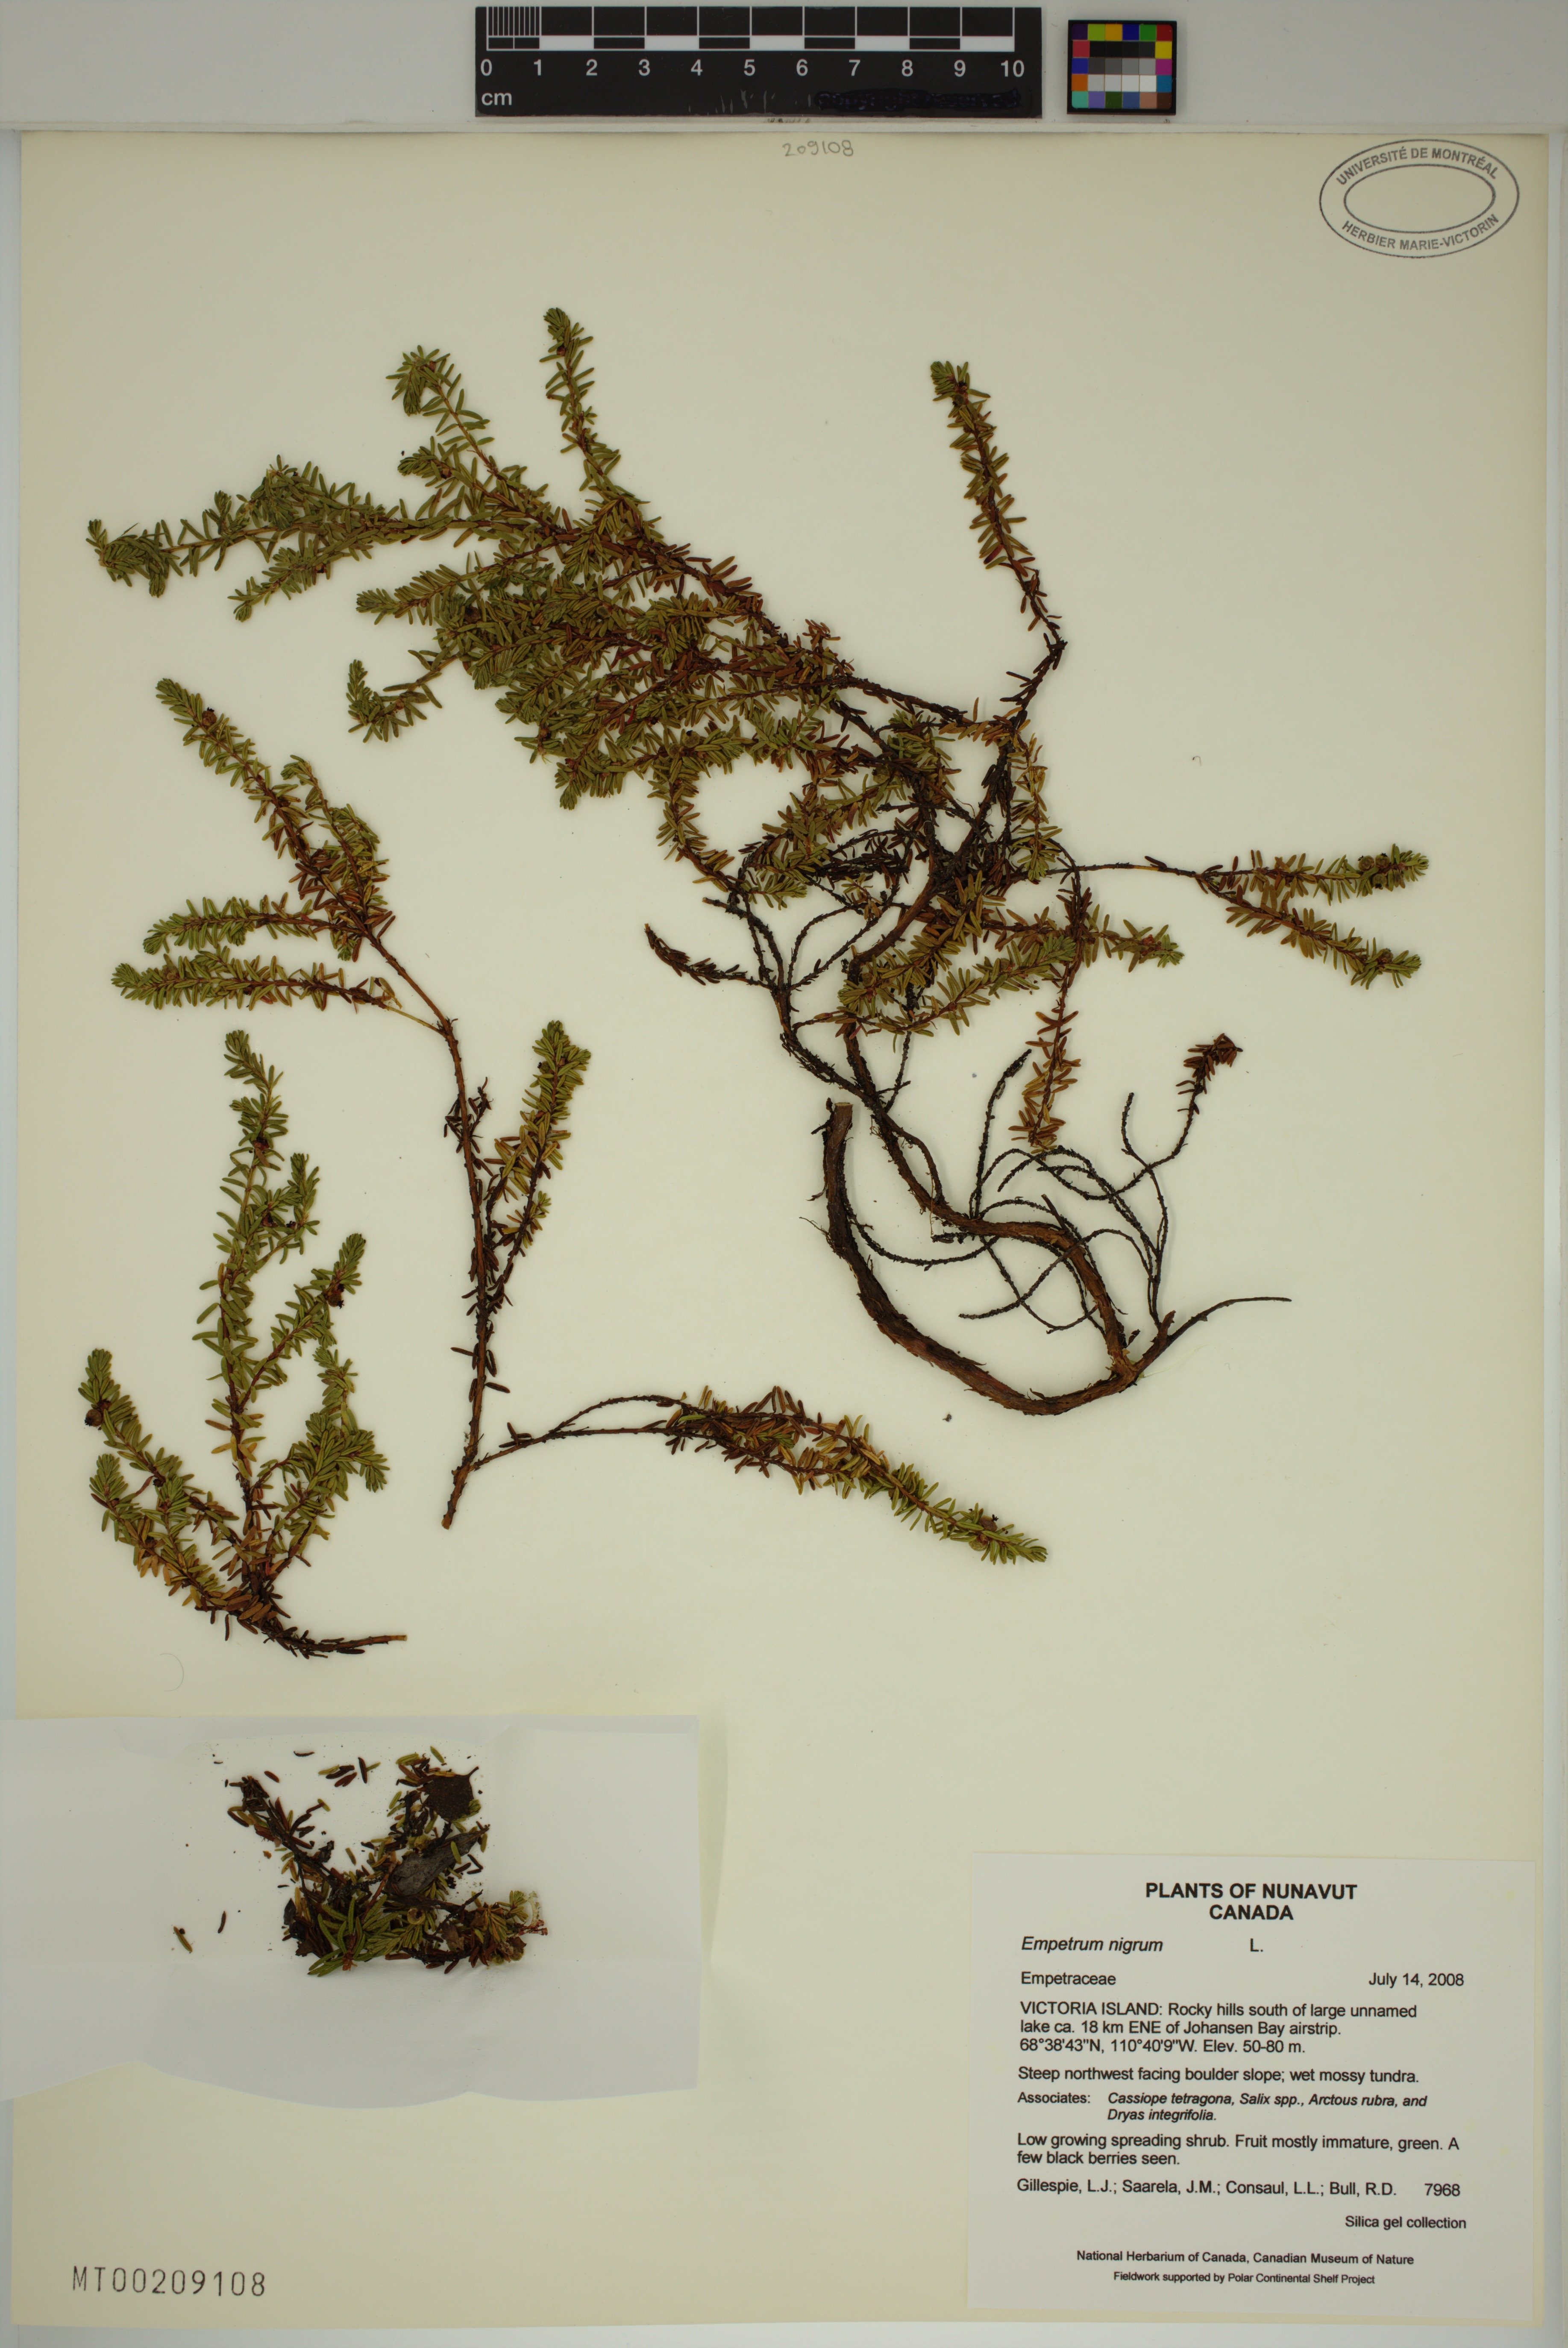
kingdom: Plantae
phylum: Tracheophyta
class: Magnoliopsida
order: Ericales
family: Ericaceae
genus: Empetrum
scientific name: Empetrum nigrum
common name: Black crowberry
